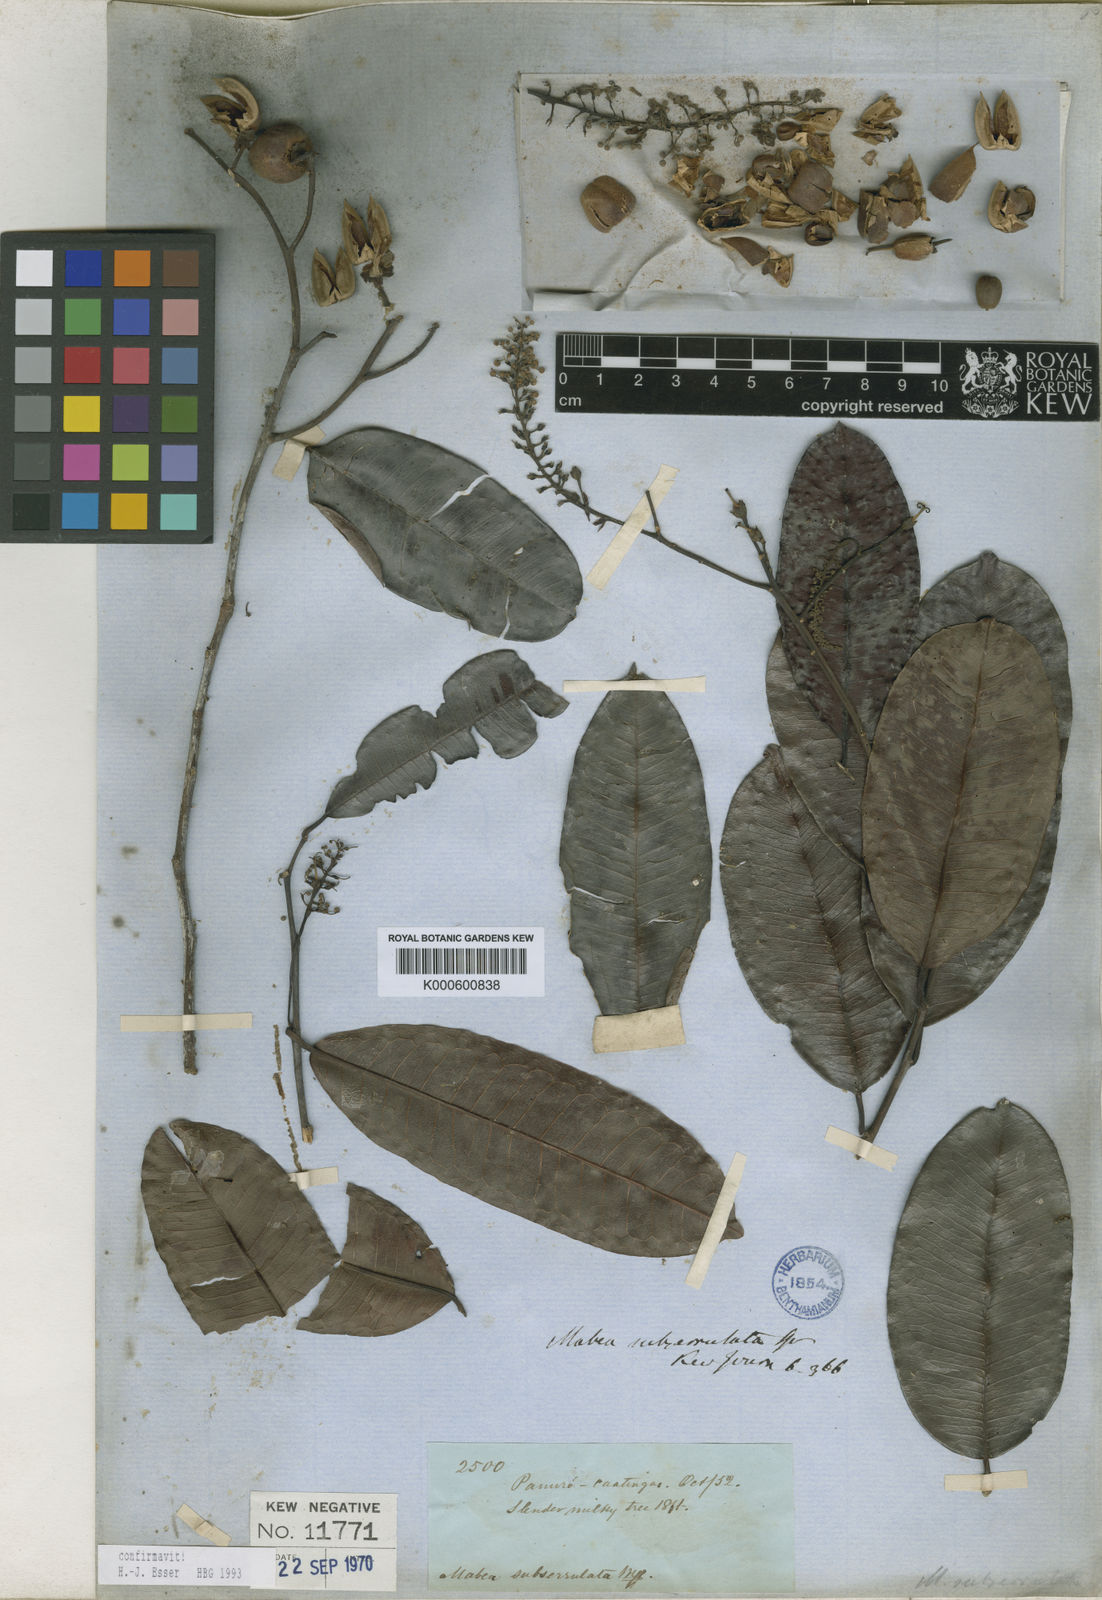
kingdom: Plantae
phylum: Tracheophyta
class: Magnoliopsida
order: Malpighiales
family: Euphorbiaceae
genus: Mabea
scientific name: Mabea subserrulata
